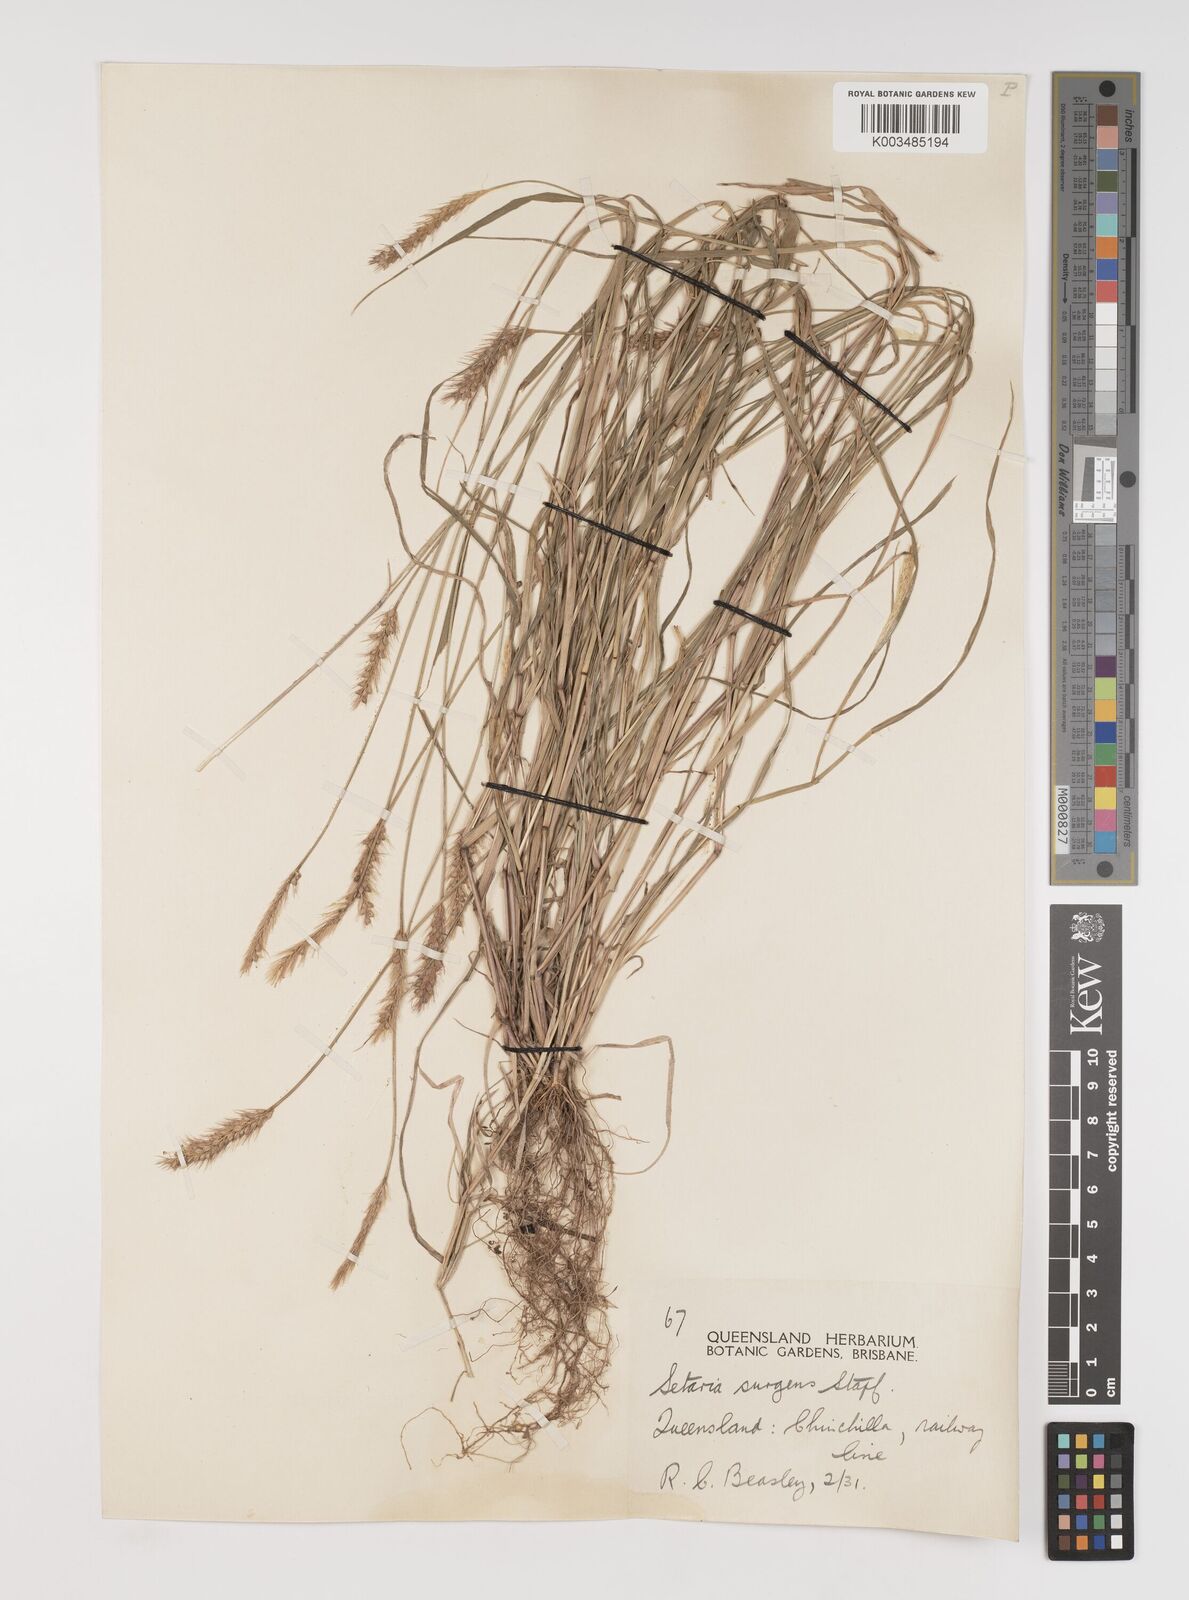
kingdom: Plantae
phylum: Tracheophyta
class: Liliopsida
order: Poales
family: Poaceae
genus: Setaria
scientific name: Setaria apiculata
